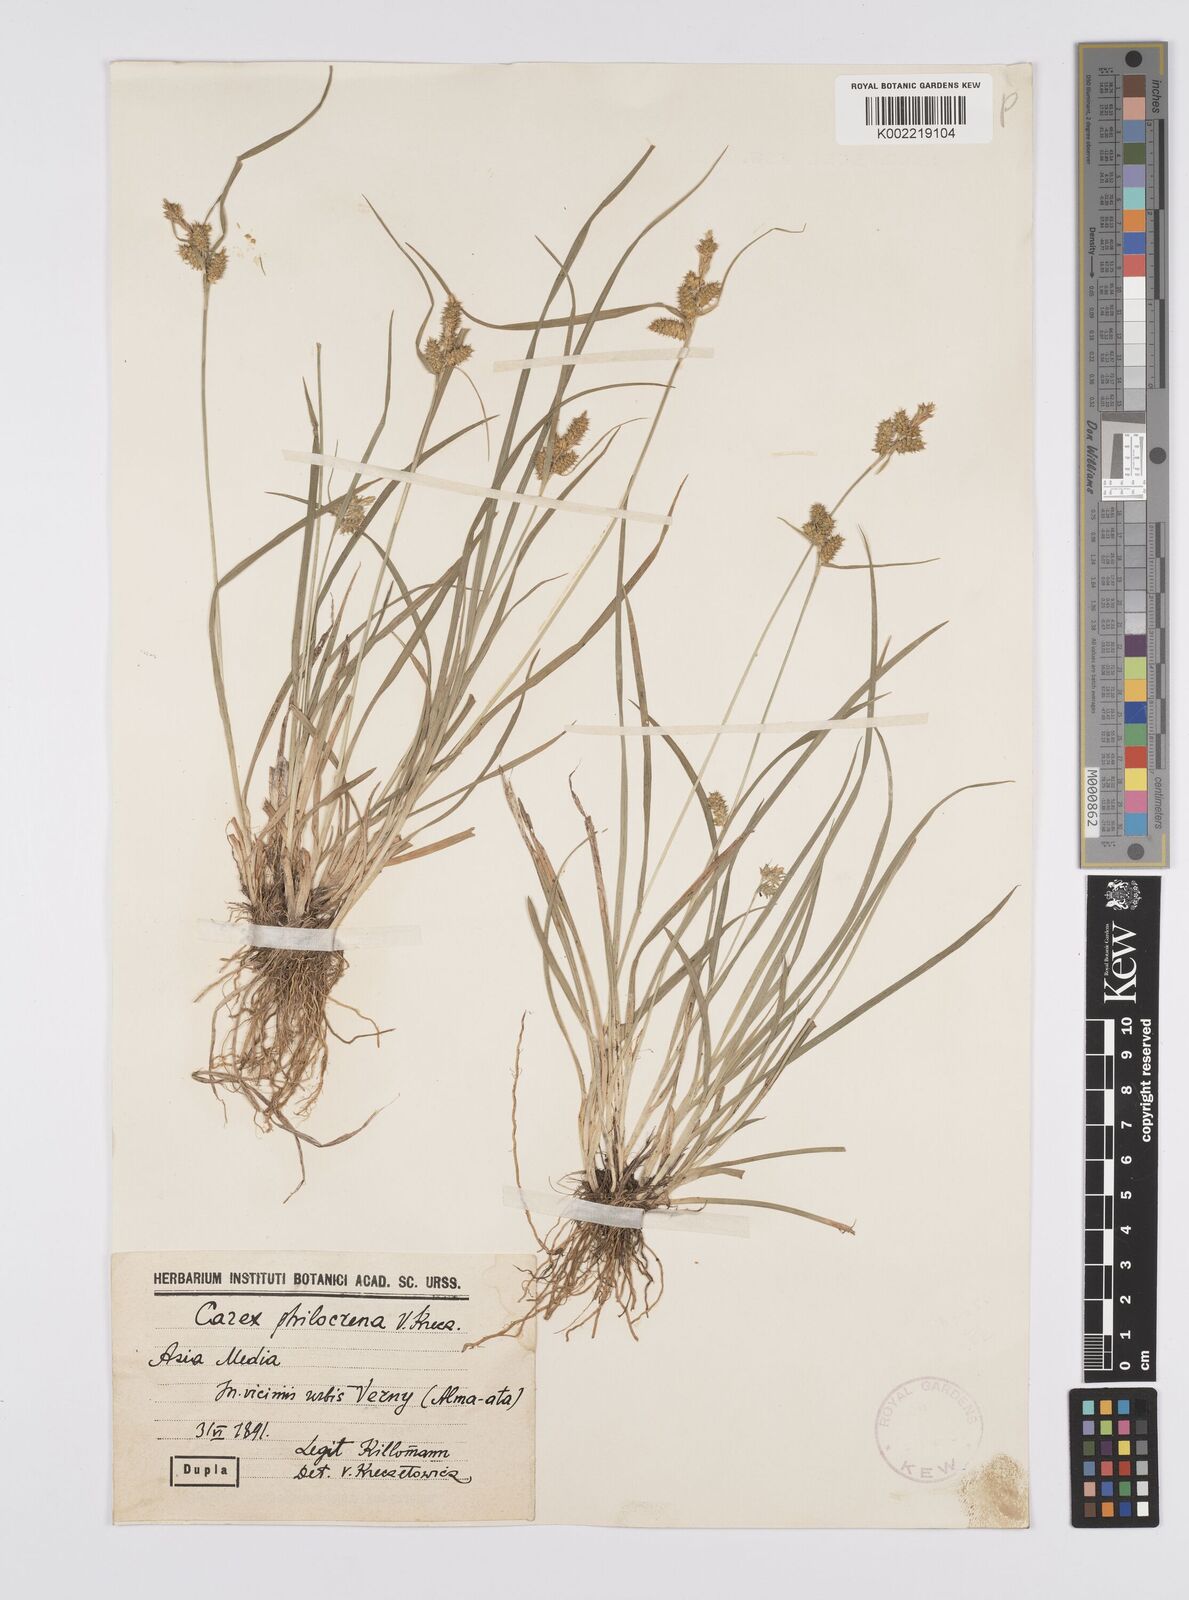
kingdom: Plantae
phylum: Tracheophyta
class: Liliopsida
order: Poales
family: Cyperaceae
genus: Carex
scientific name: Carex oederi
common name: Common & small-fruited yellow-sedge
